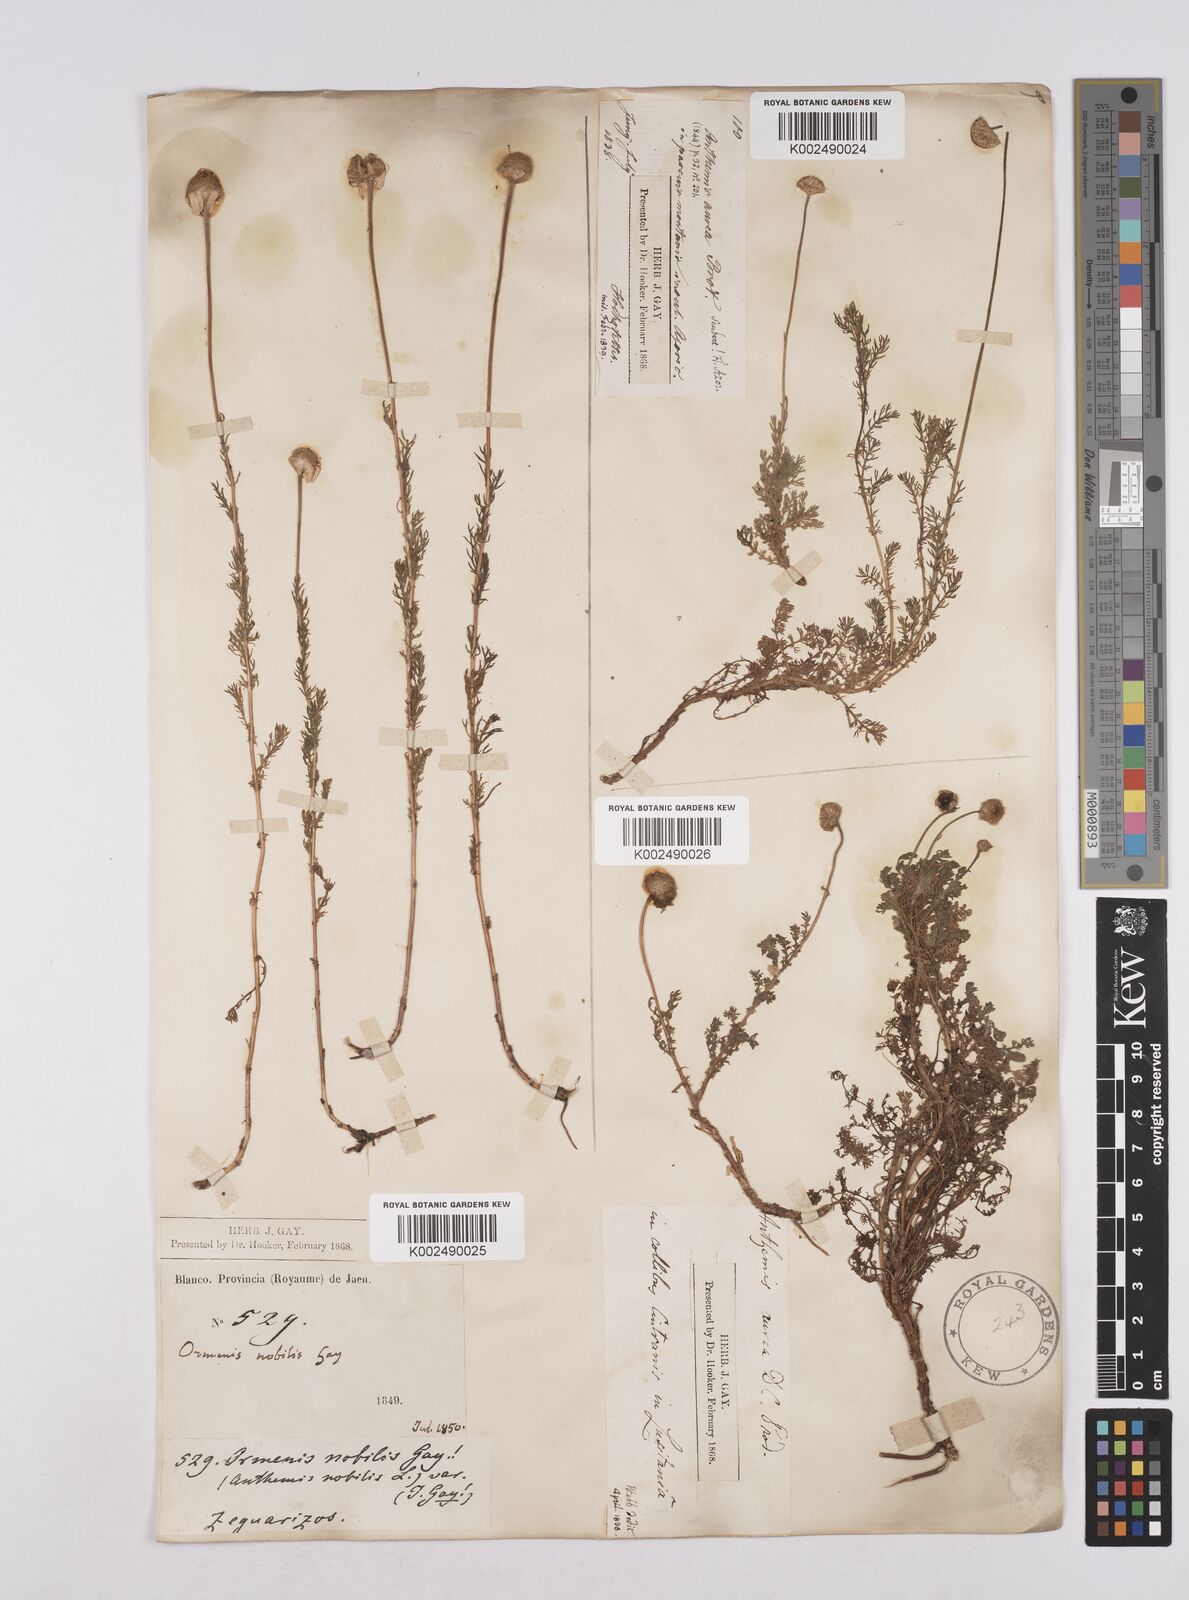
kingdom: Plantae
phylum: Tracheophyta
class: Magnoliopsida
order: Asterales
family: Asteraceae
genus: Matricaria
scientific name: Matricaria aurea
